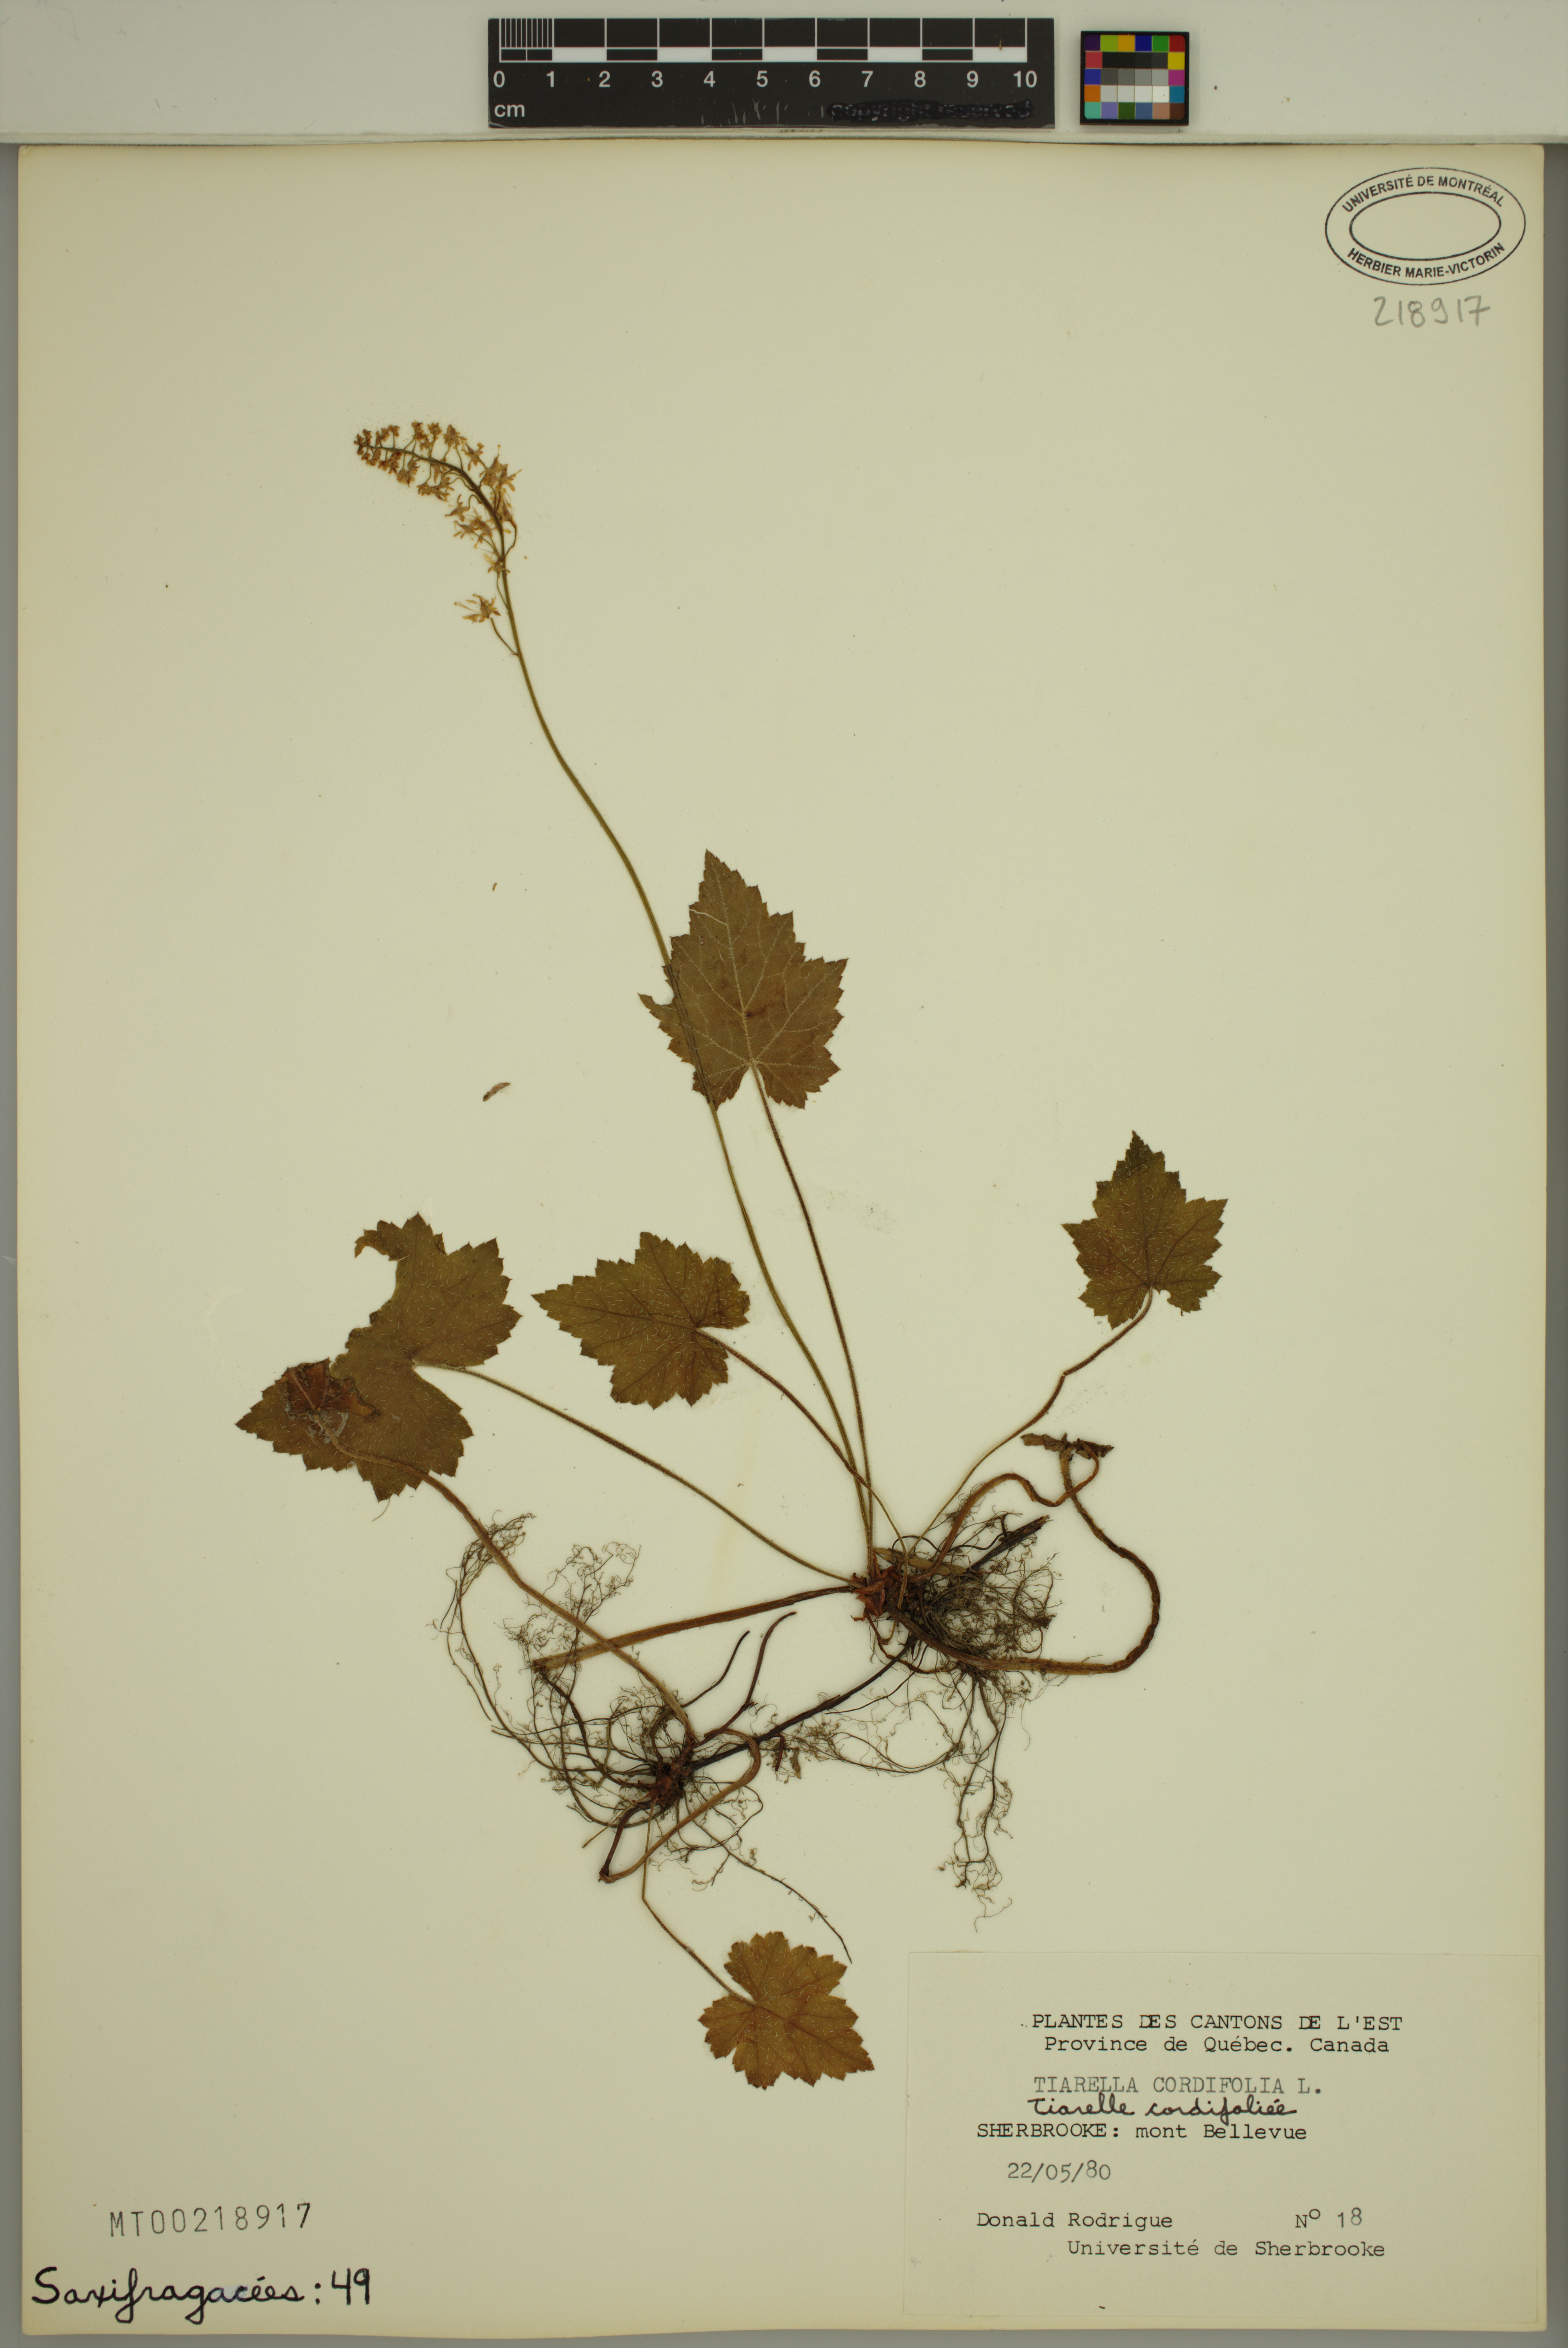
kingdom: Plantae
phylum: Tracheophyta
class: Magnoliopsida
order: Saxifragales
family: Saxifragaceae
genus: Tiarella
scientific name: Tiarella cordifolia
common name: Foamflower
